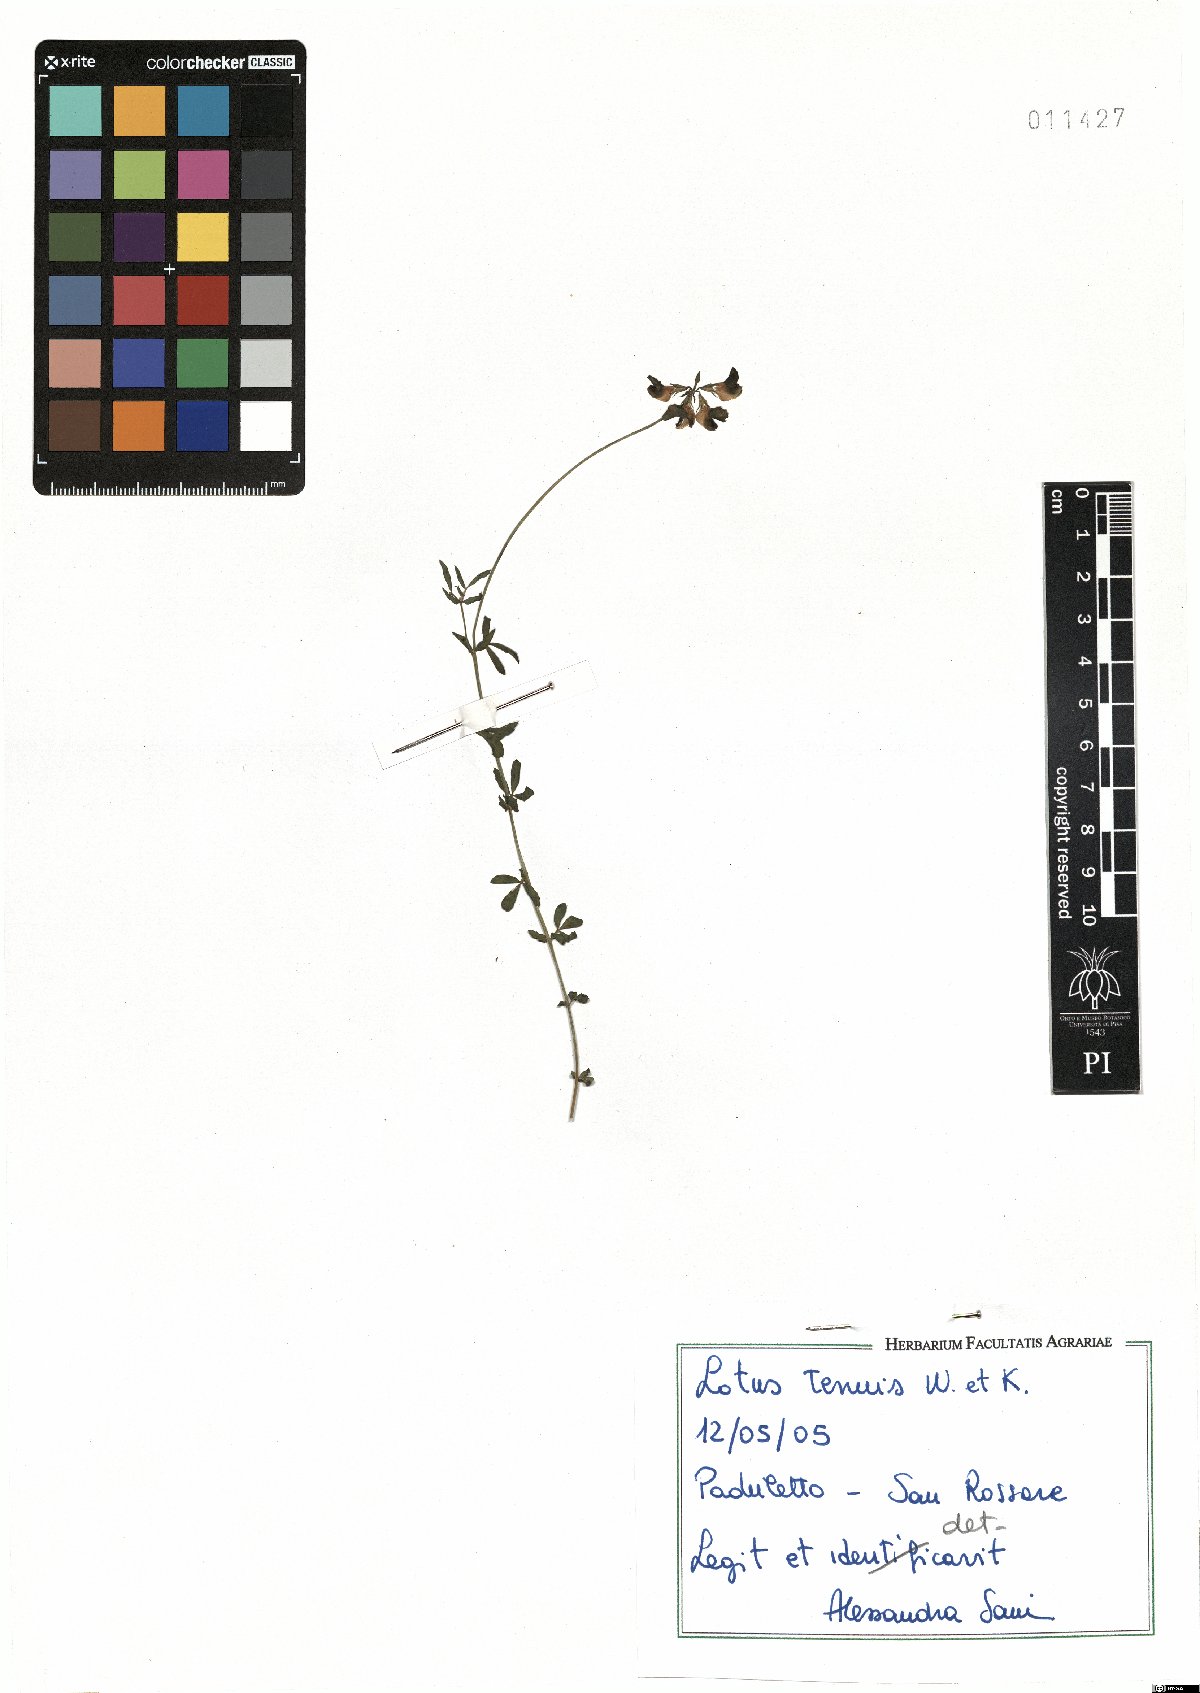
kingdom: Plantae
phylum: Tracheophyta
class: Magnoliopsida
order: Fabales
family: Fabaceae
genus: Lotus
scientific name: Lotus tenuis
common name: Narrow-leaved bird's-foot-trefoil
